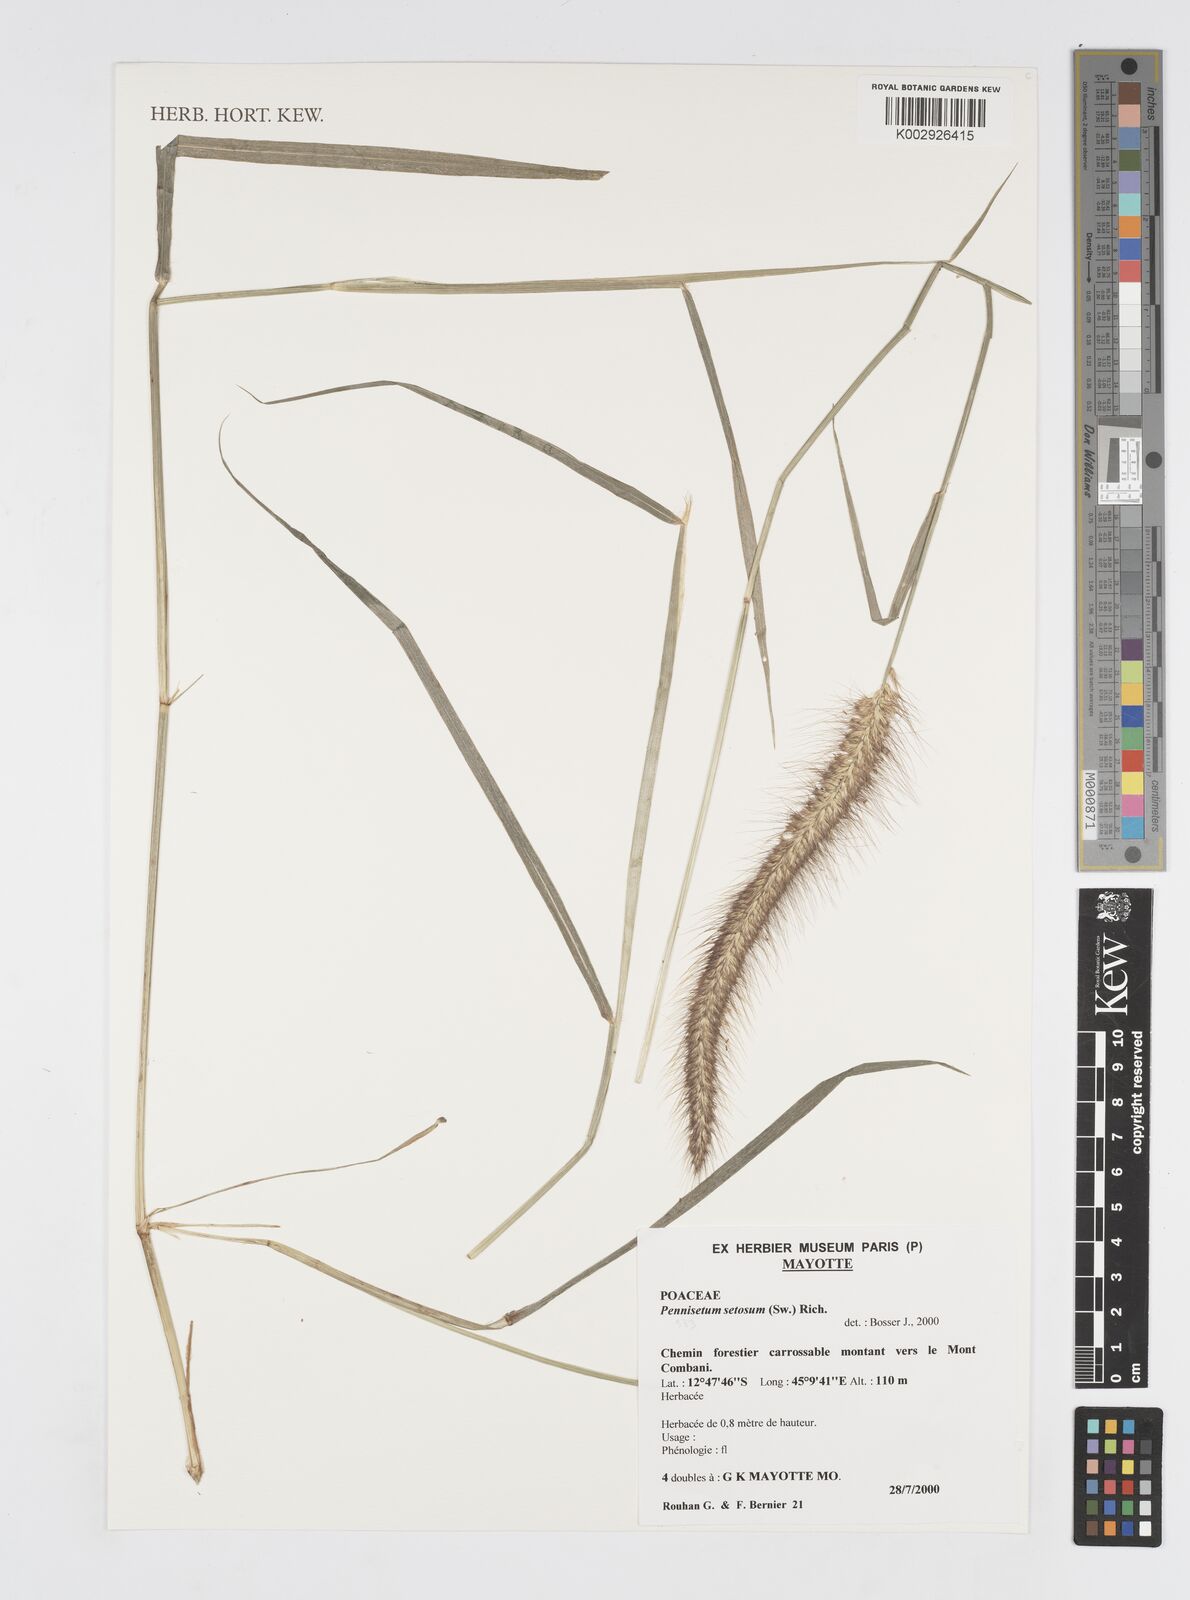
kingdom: Plantae
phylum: Tracheophyta
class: Liliopsida
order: Poales
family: Poaceae
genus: Cenchrus
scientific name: Cenchrus setosus
